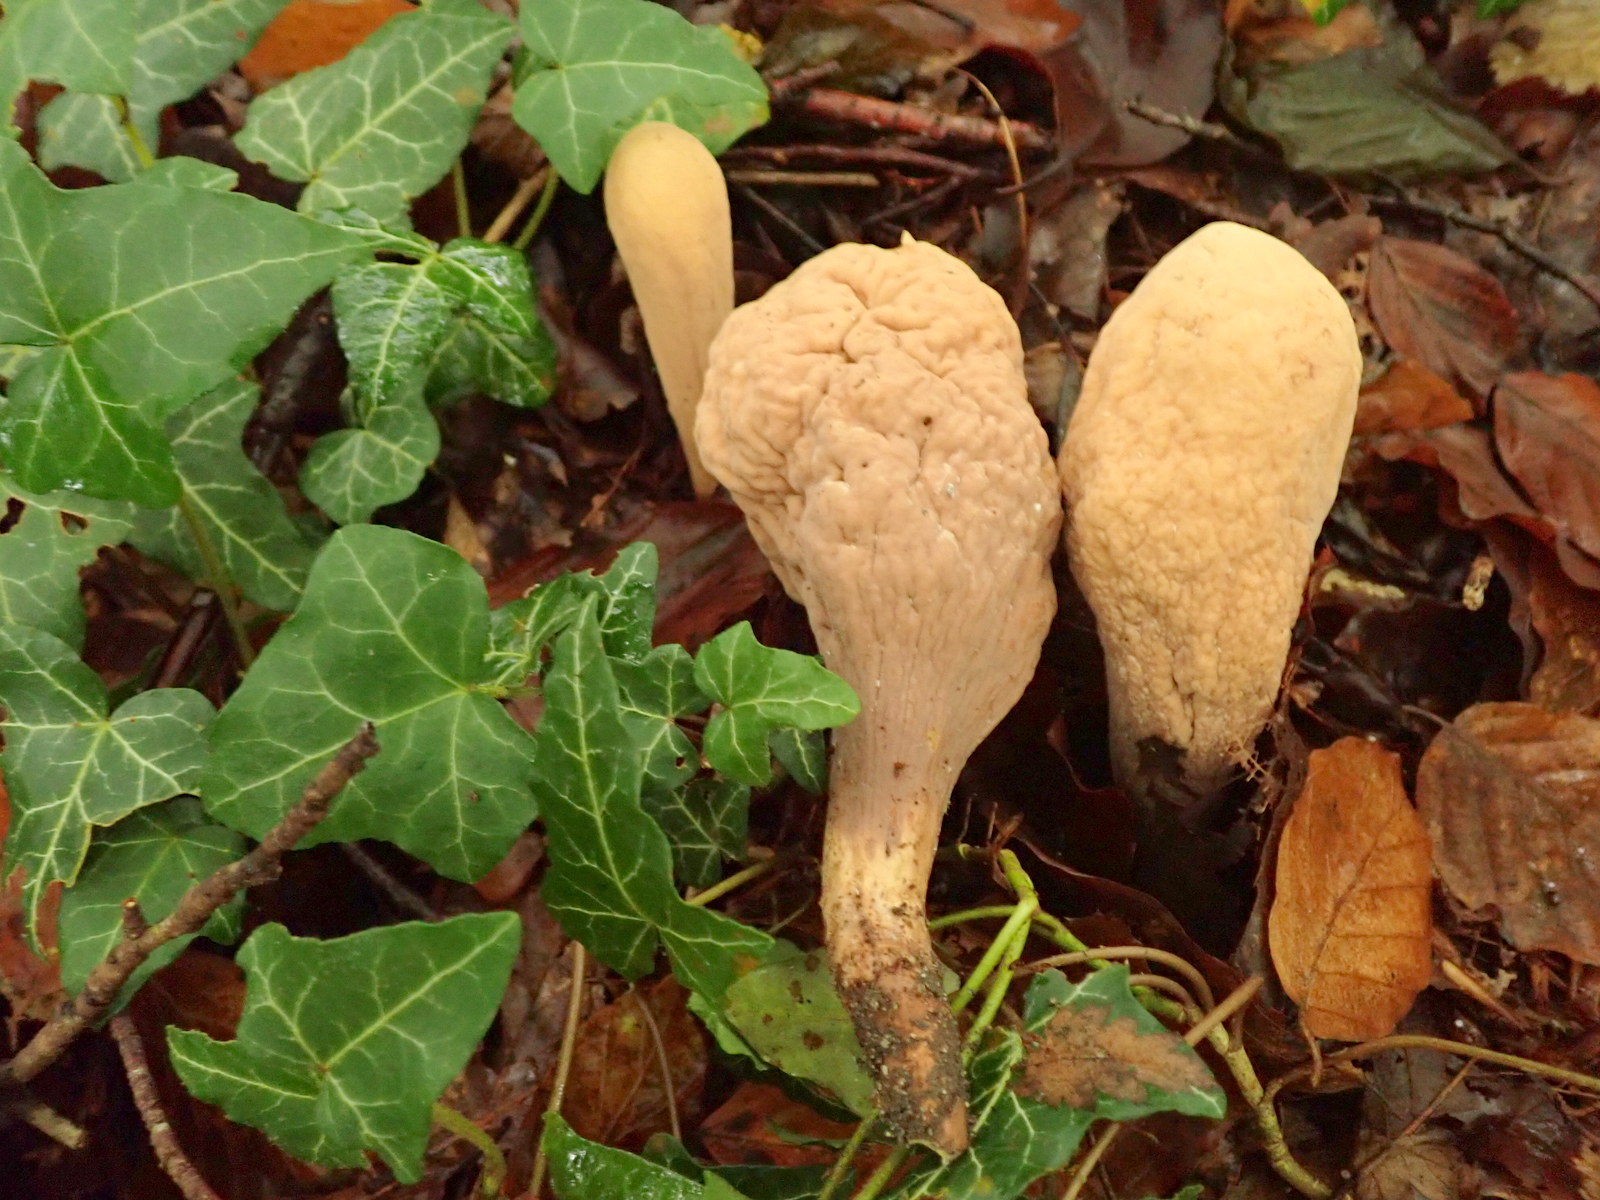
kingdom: Fungi
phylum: Basidiomycota
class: Agaricomycetes
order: Gomphales
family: Clavariadelphaceae
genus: Clavariadelphus
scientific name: Clavariadelphus pistillaris
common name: herkules-kæmpekølle
